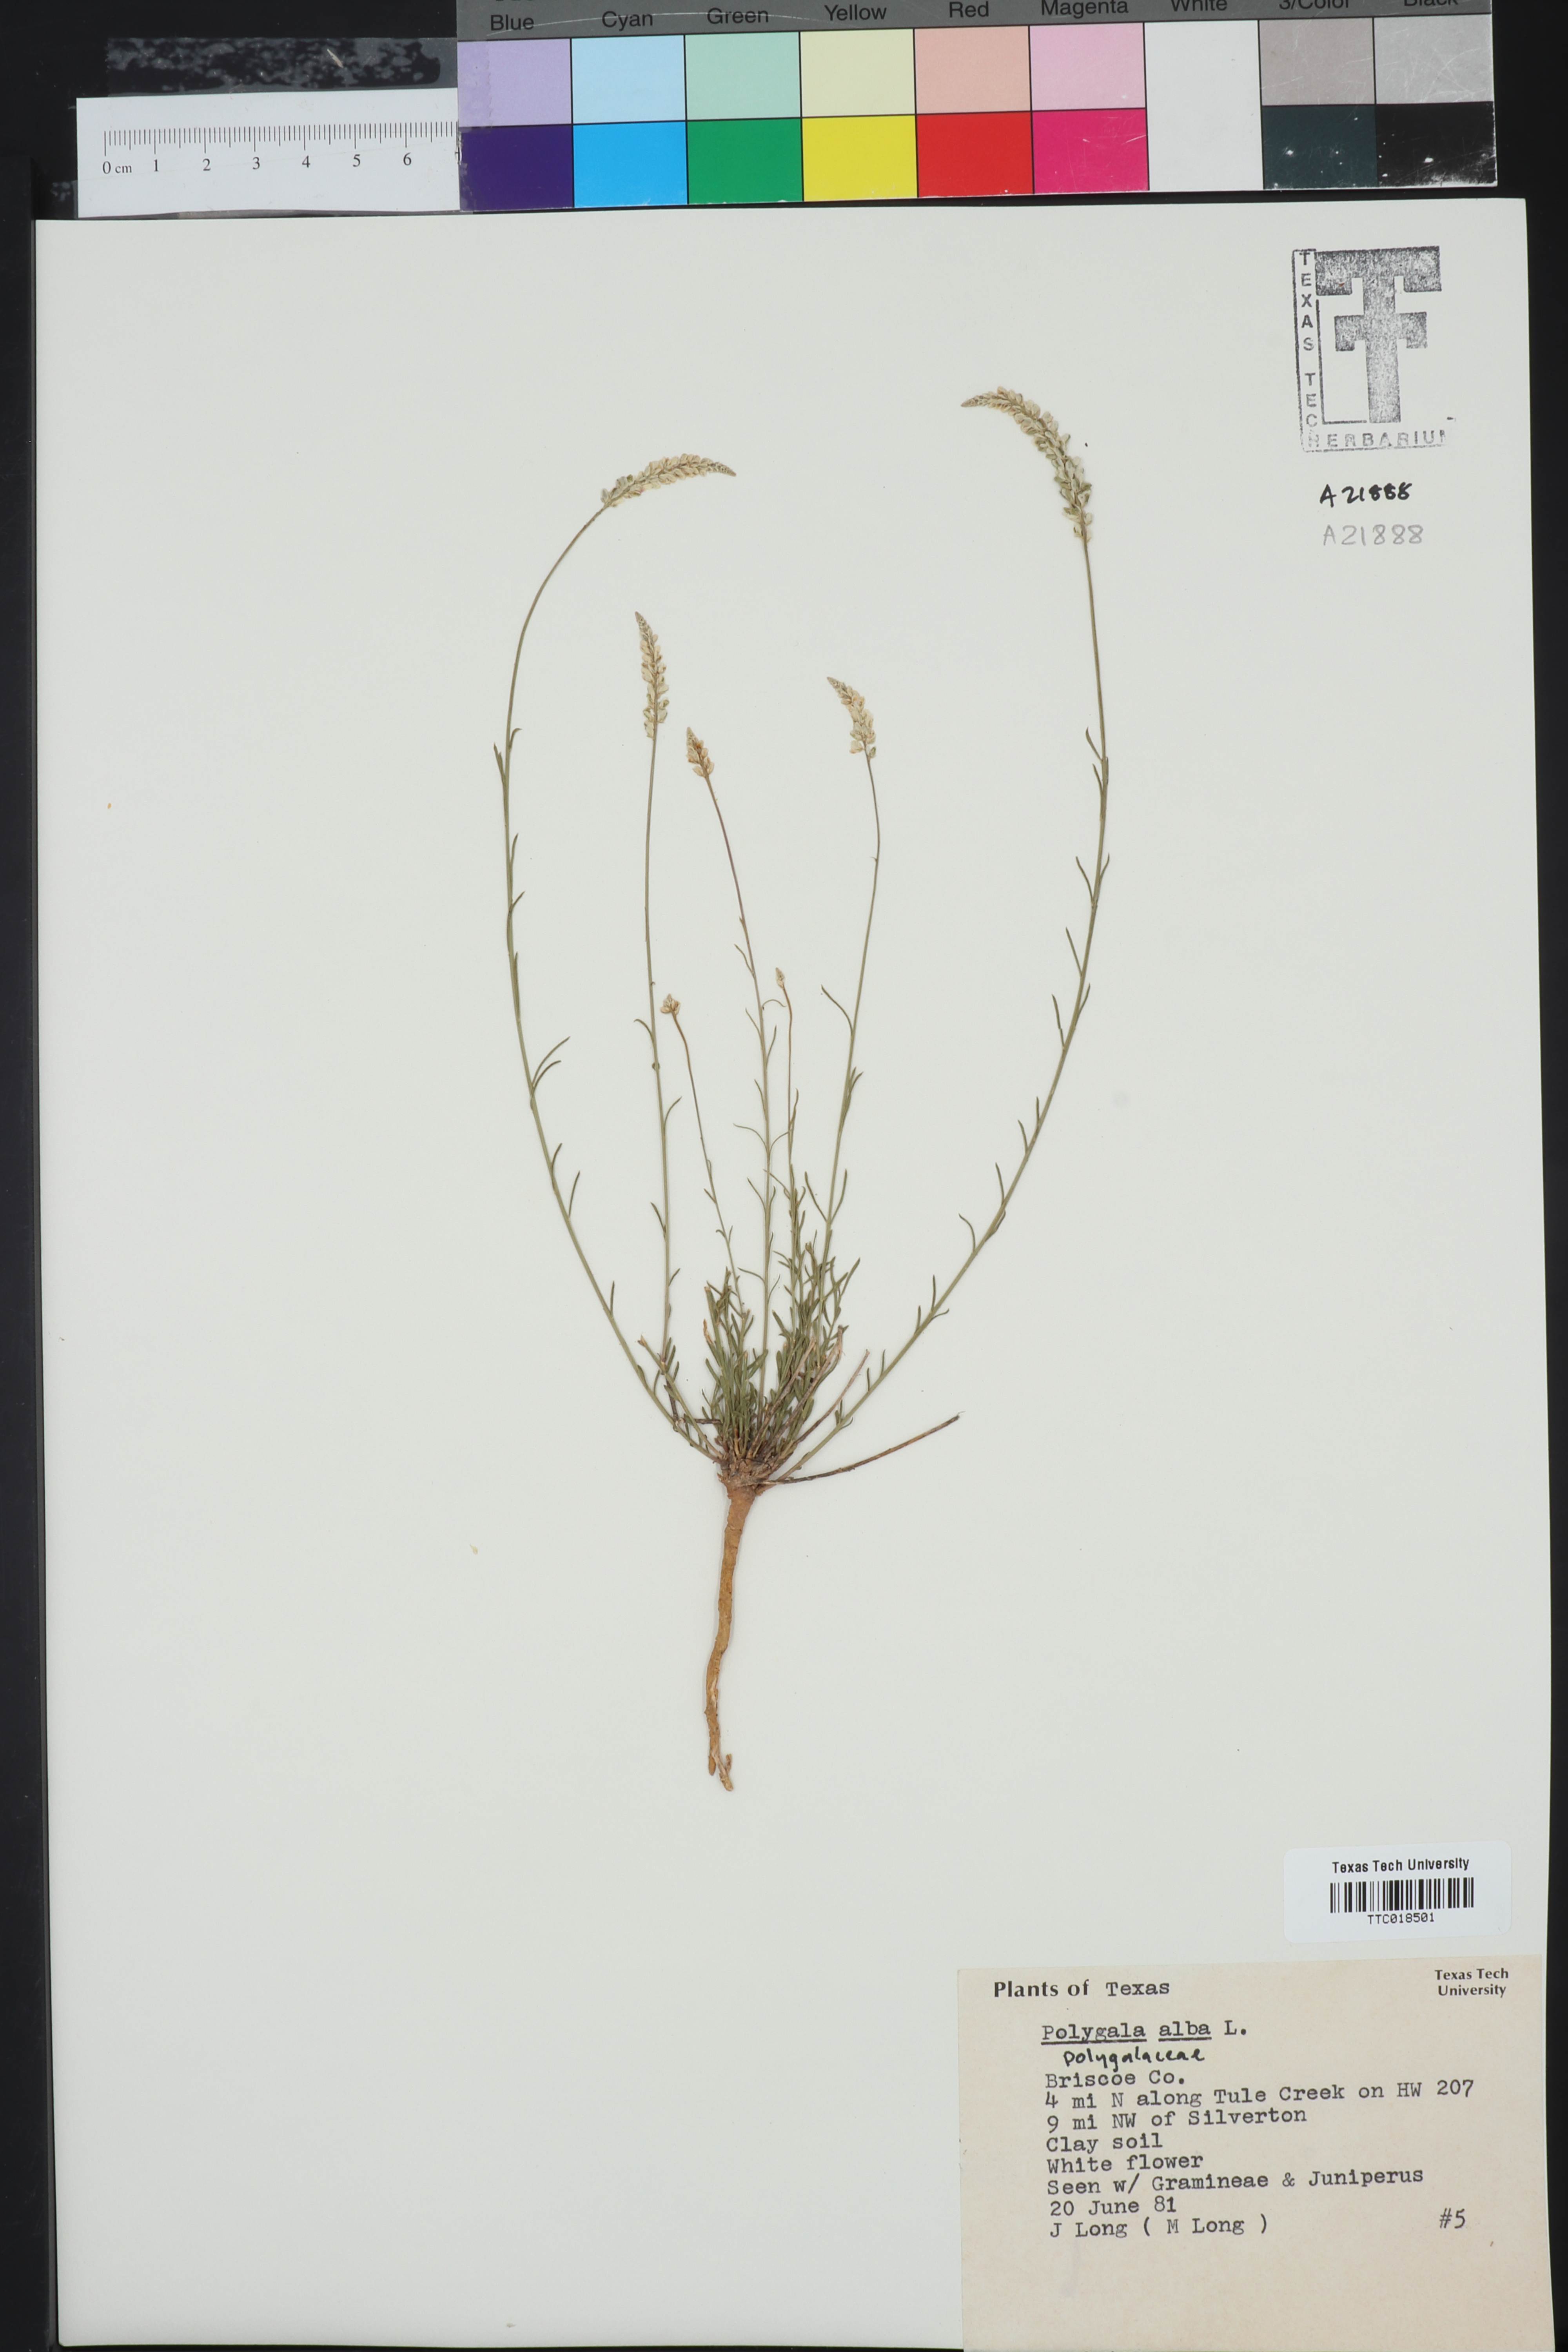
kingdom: Plantae
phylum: Tracheophyta
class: Magnoliopsida
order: Fabales
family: Polygalaceae
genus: Polygala
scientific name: Polygala alba
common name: White milkwort
